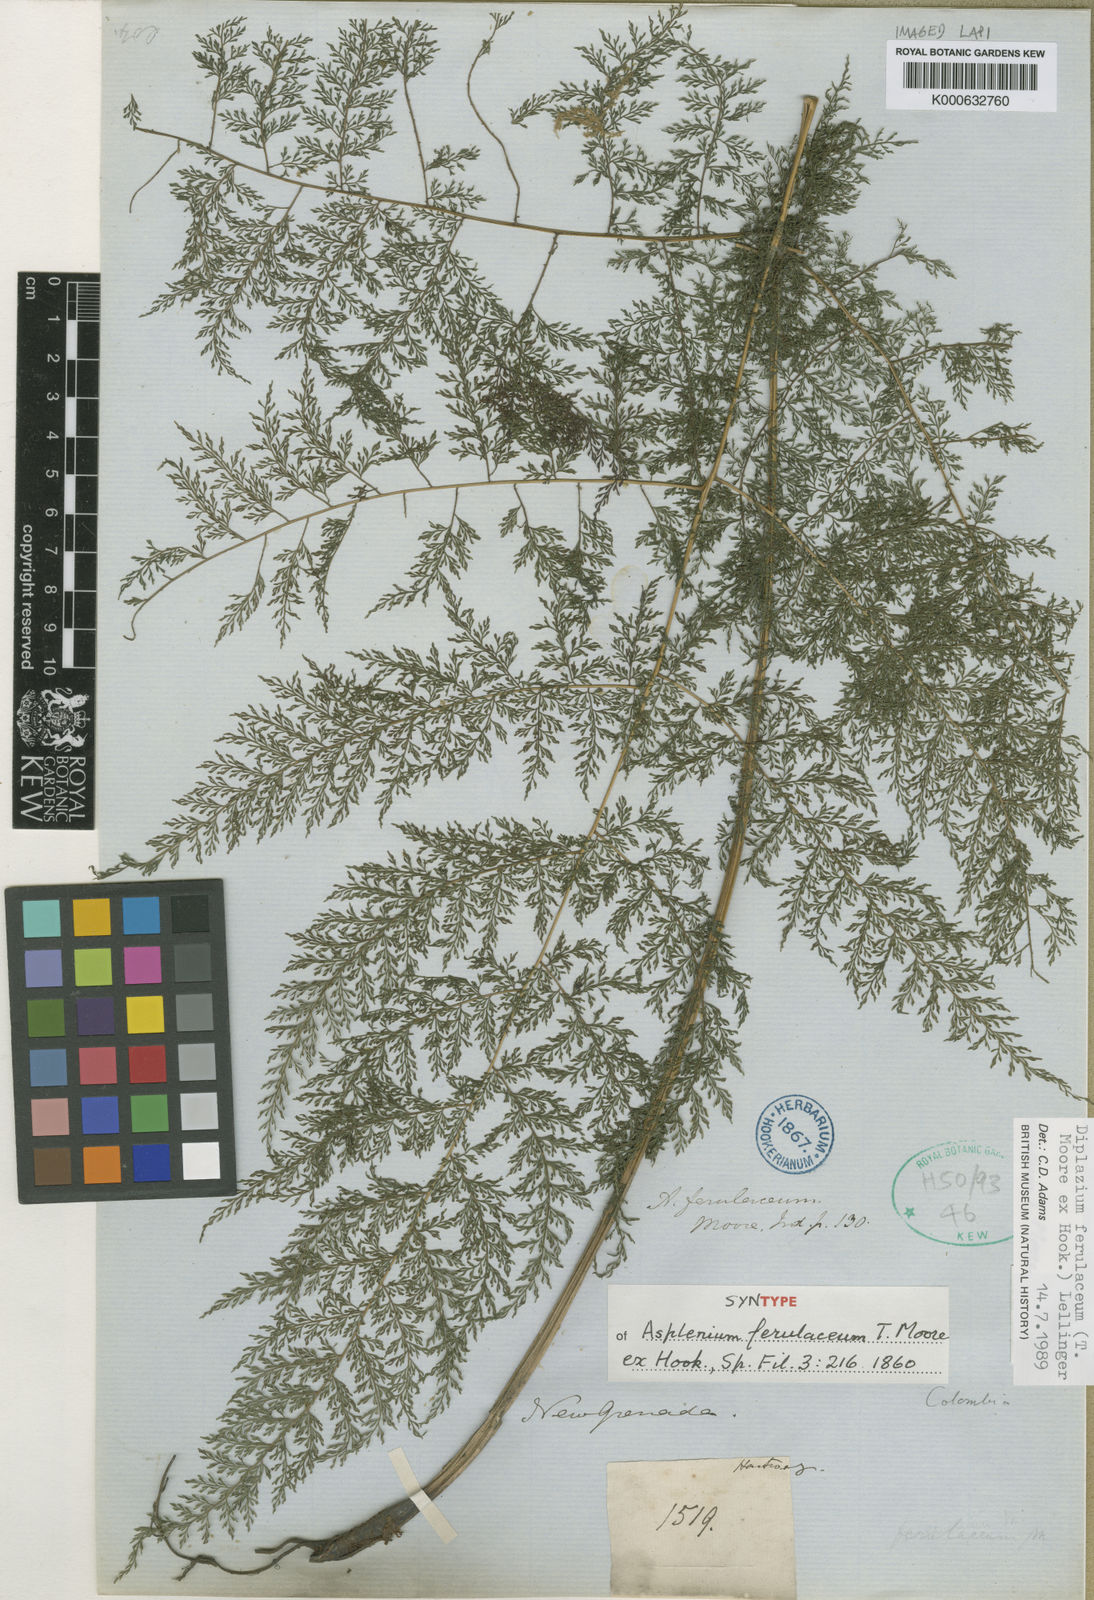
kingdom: Plantae
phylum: Tracheophyta
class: Polypodiopsida
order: Polypodiales
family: Athyriaceae
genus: Athyrium
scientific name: Athyrium ferulaceum
